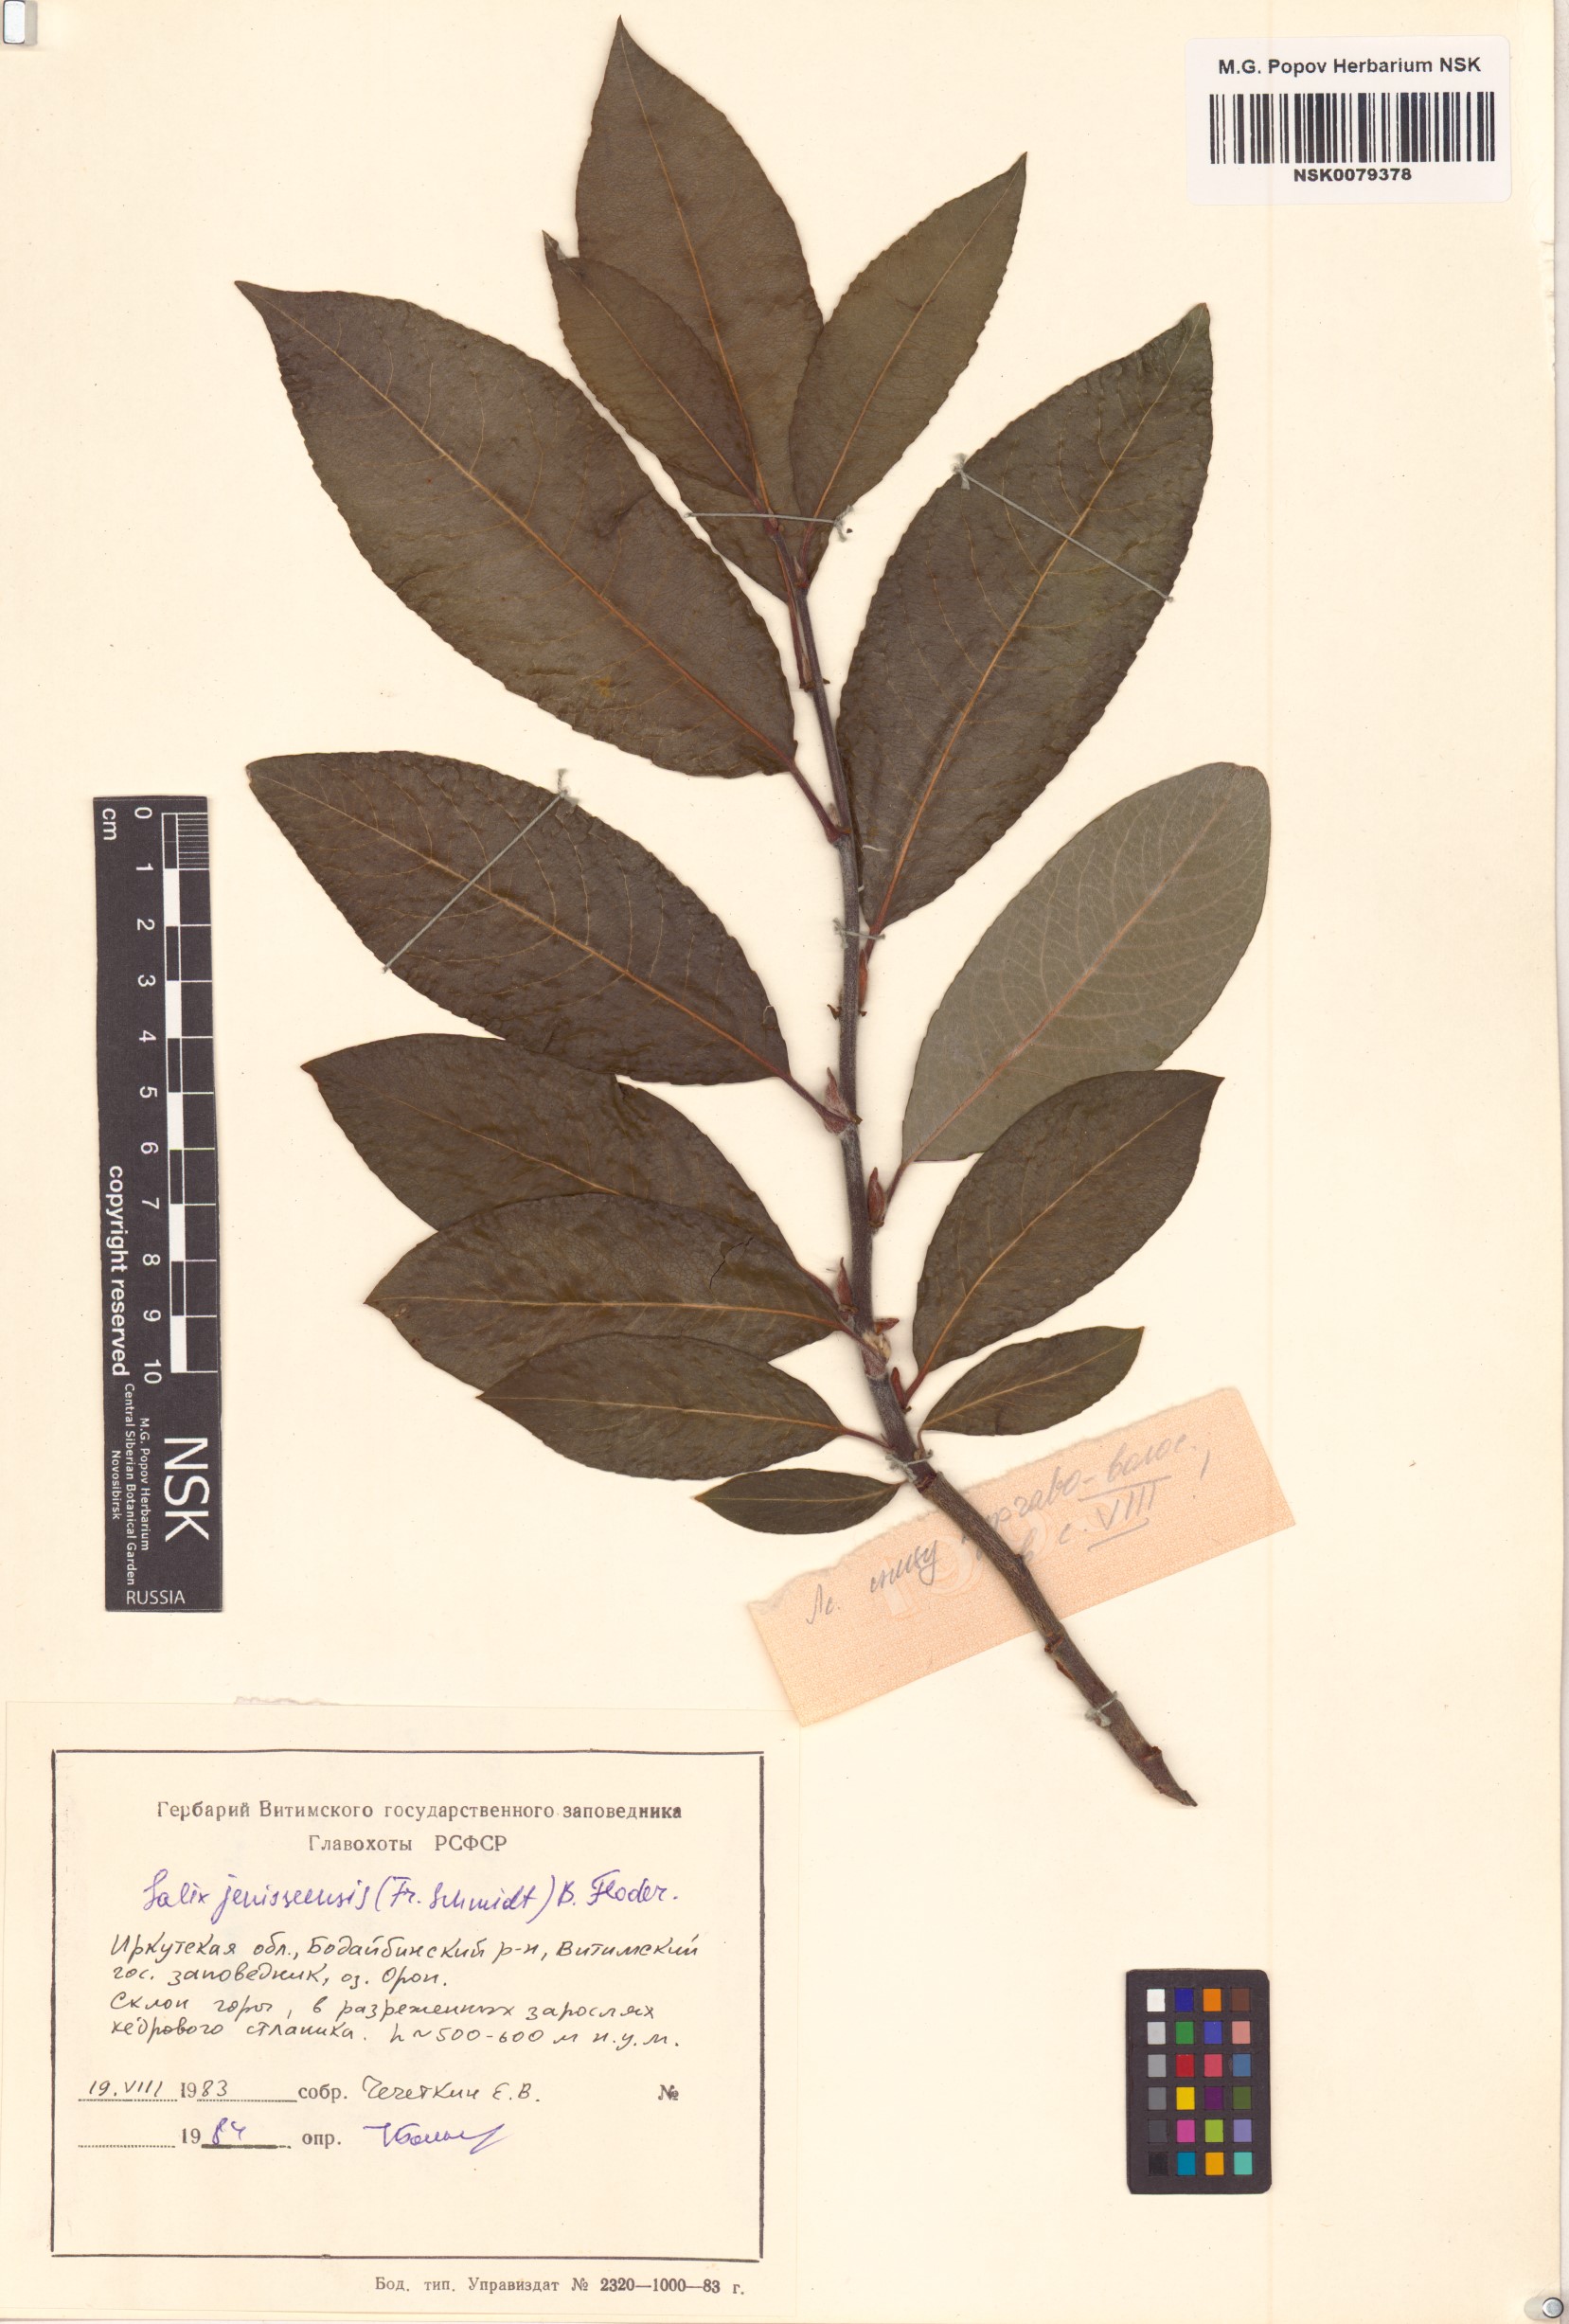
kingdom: Plantae
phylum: Tracheophyta
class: Magnoliopsida
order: Malpighiales
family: Salicaceae
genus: Salix
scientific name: Salix jenisseensis
